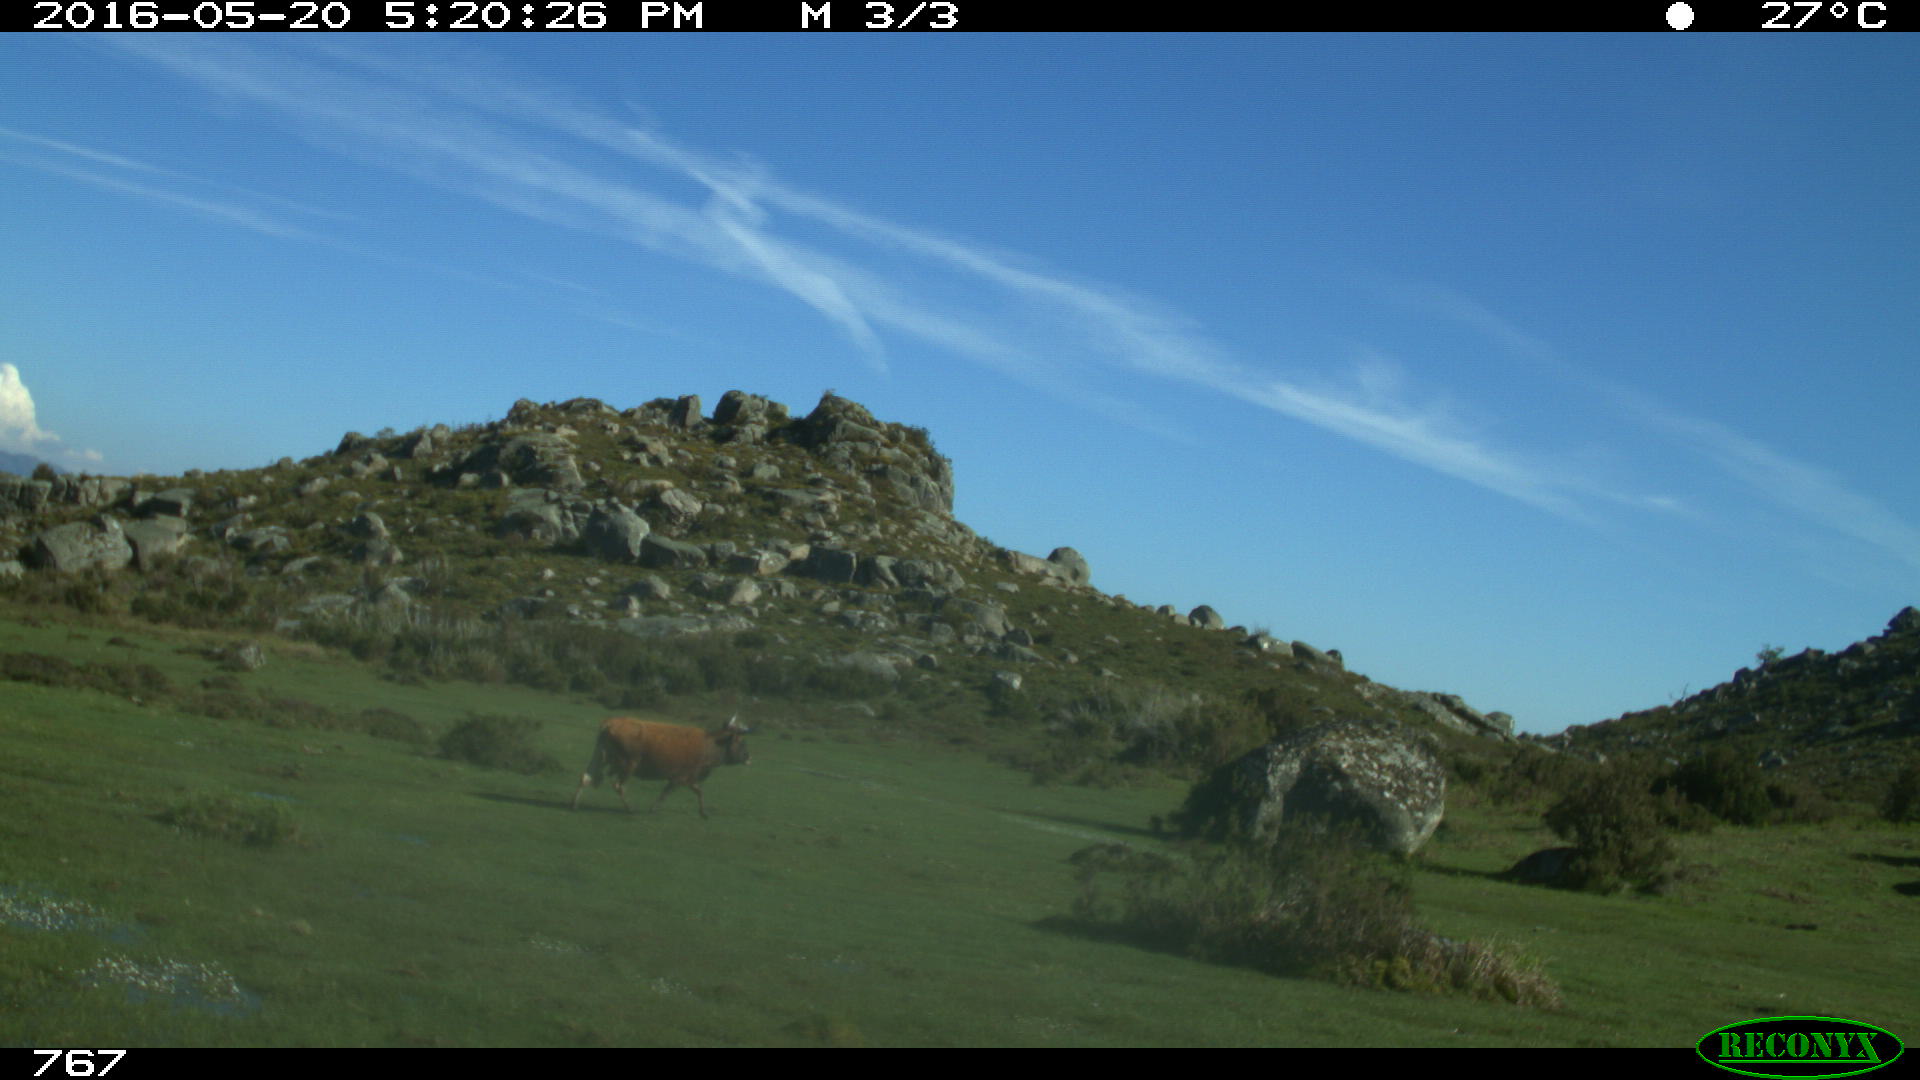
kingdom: Animalia
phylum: Chordata
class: Mammalia
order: Artiodactyla
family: Bovidae
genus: Bos
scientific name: Bos taurus
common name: Domesticated cattle
